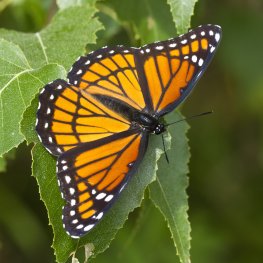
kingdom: Animalia
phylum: Arthropoda
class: Insecta
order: Lepidoptera
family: Nymphalidae
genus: Limenitis
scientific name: Limenitis archippus
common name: Viceroy
